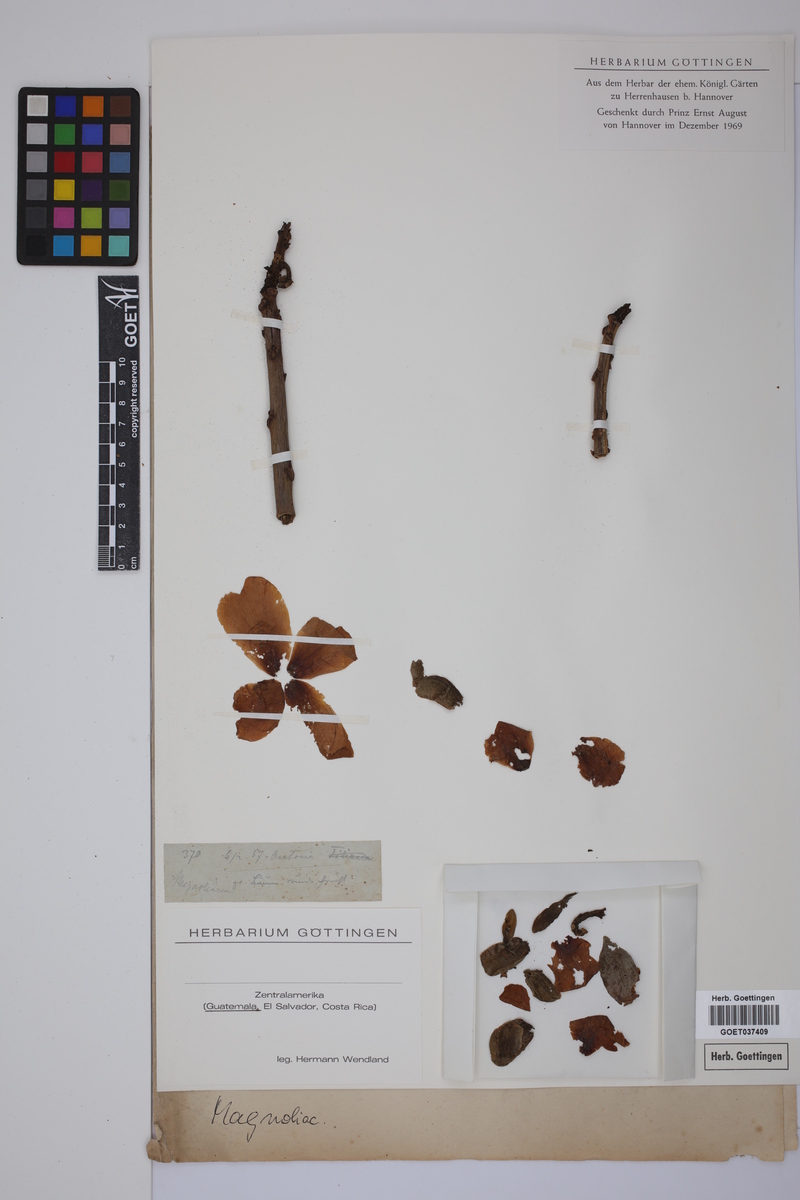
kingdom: Plantae
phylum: Tracheophyta
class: Magnoliopsida
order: Magnoliales
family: Magnoliaceae
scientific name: Magnoliaceae
